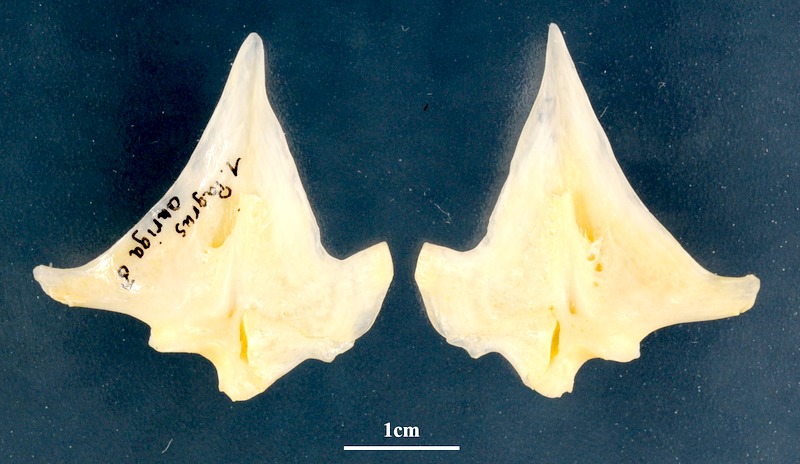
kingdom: Animalia
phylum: Chordata
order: Perciformes
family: Sparidae
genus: Pagrus
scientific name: Pagrus auriga
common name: Murudai
